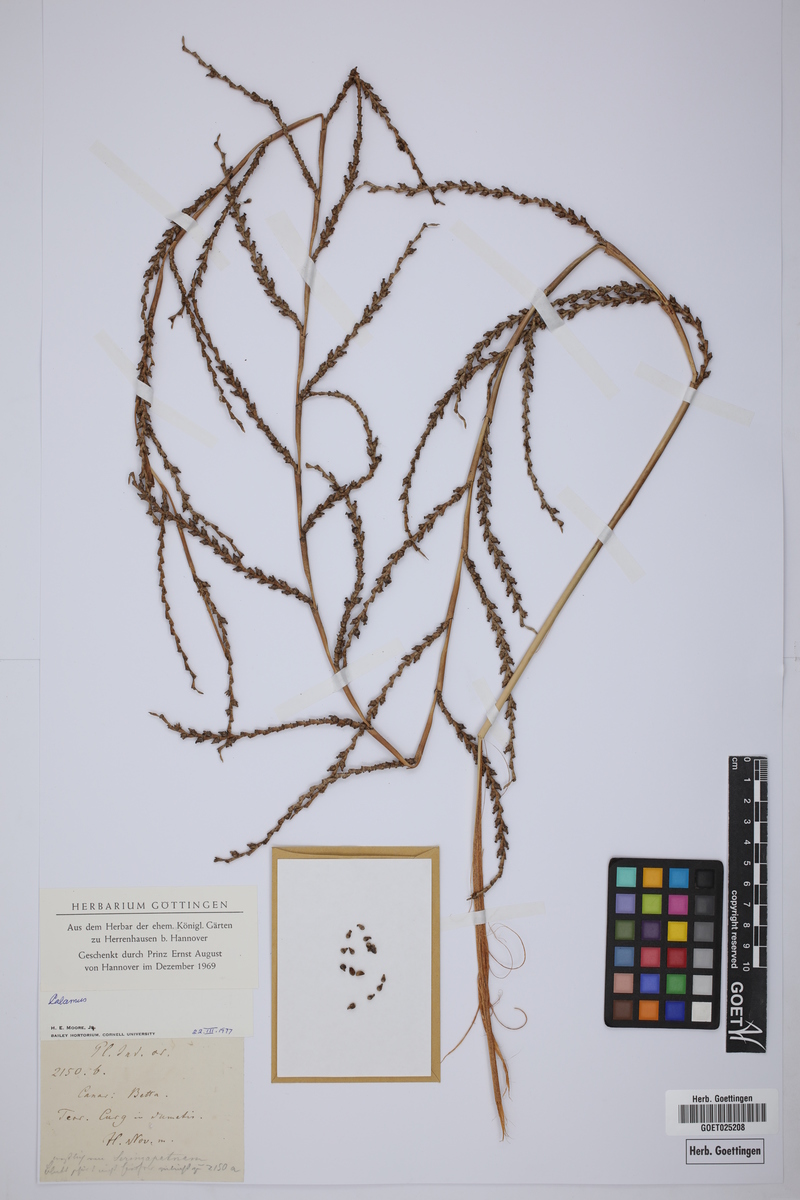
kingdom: Plantae
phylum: Tracheophyta
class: Liliopsida
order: Arecales
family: Arecaceae
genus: Calamus
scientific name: Calamus
